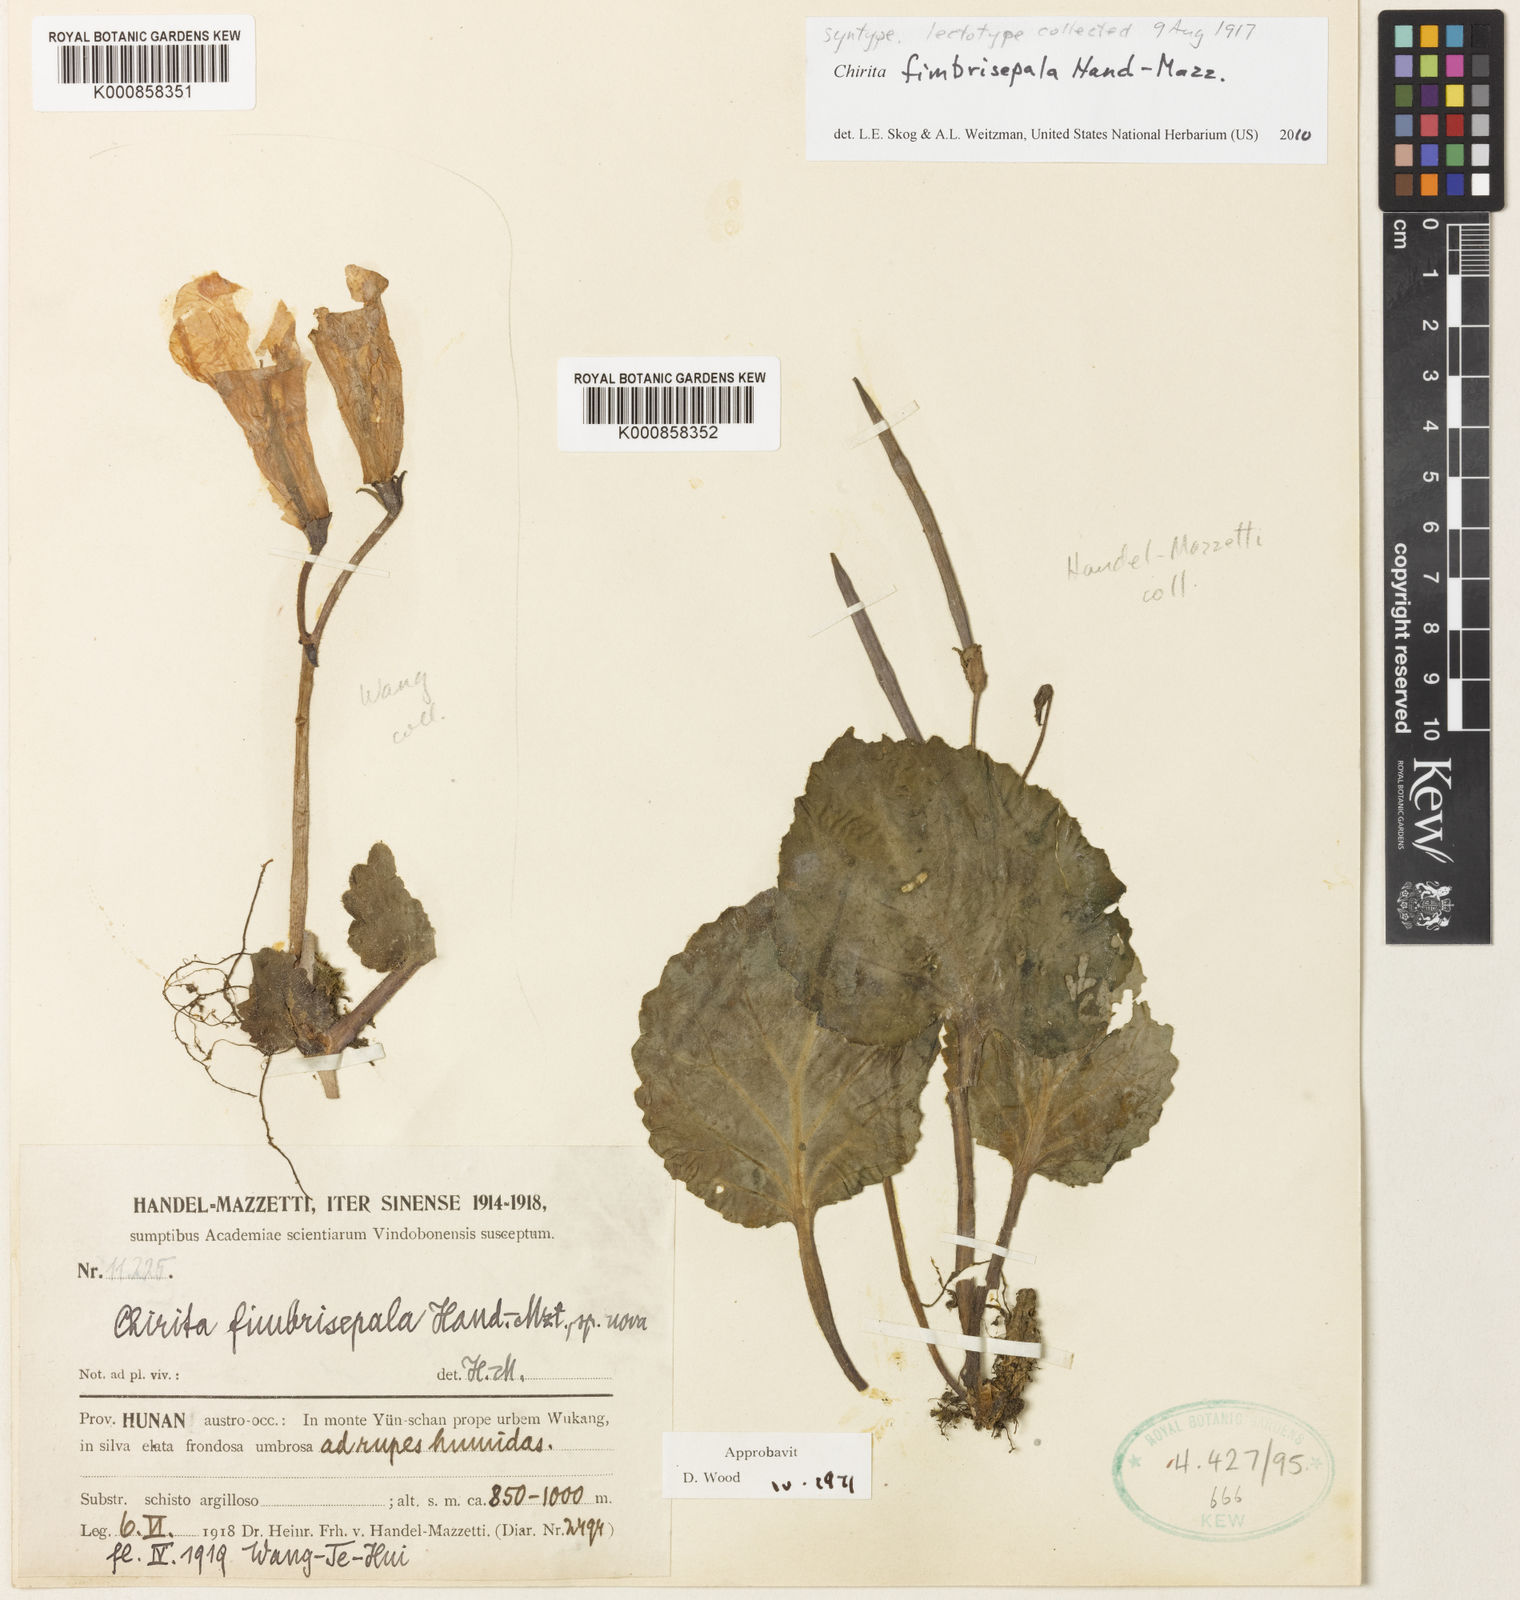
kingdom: Plantae
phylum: Tracheophyta
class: Magnoliopsida
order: Lamiales
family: Gesneriaceae
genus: Primulina
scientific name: Primulina fimbrisepala
